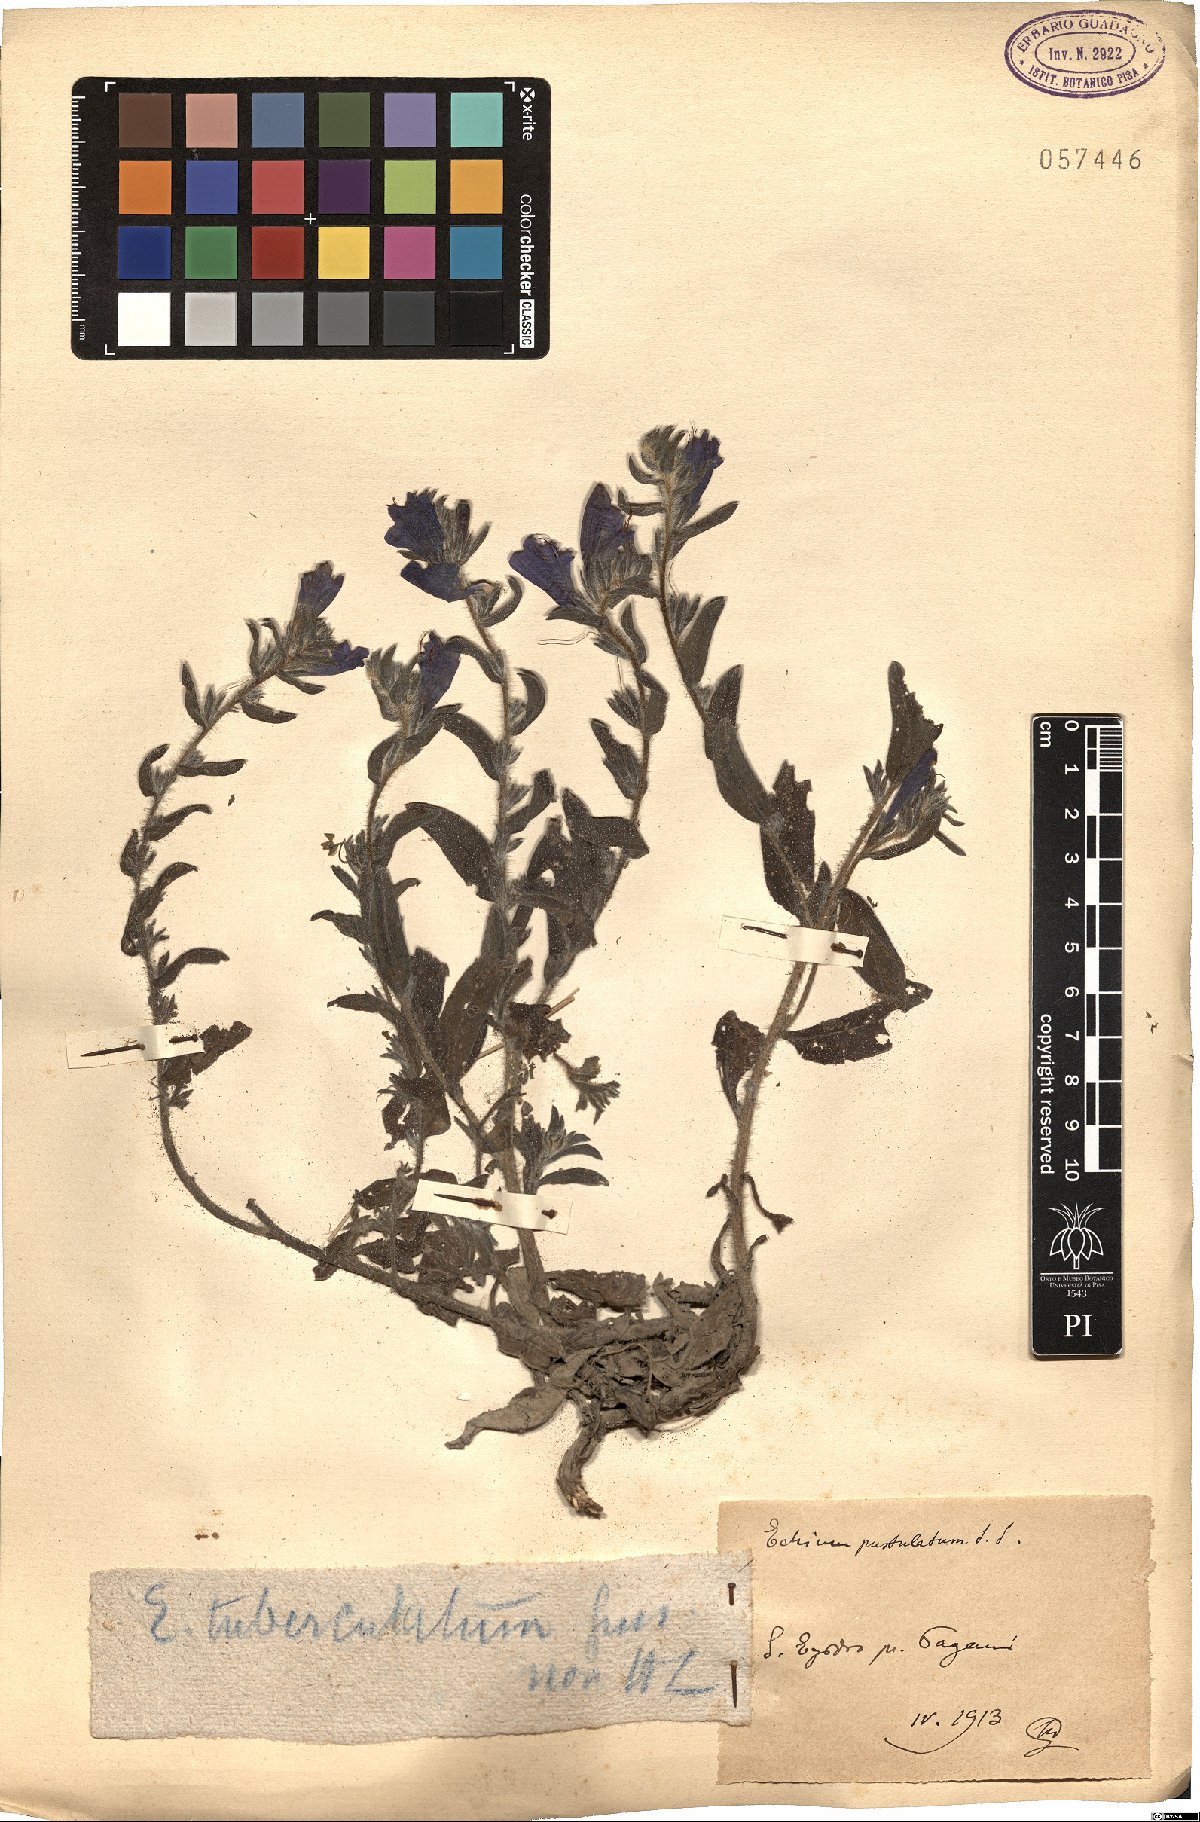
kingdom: Plantae
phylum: Tracheophyta
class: Magnoliopsida
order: Boraginales
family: Boraginaceae
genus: Echium
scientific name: Echium tuberculatum
